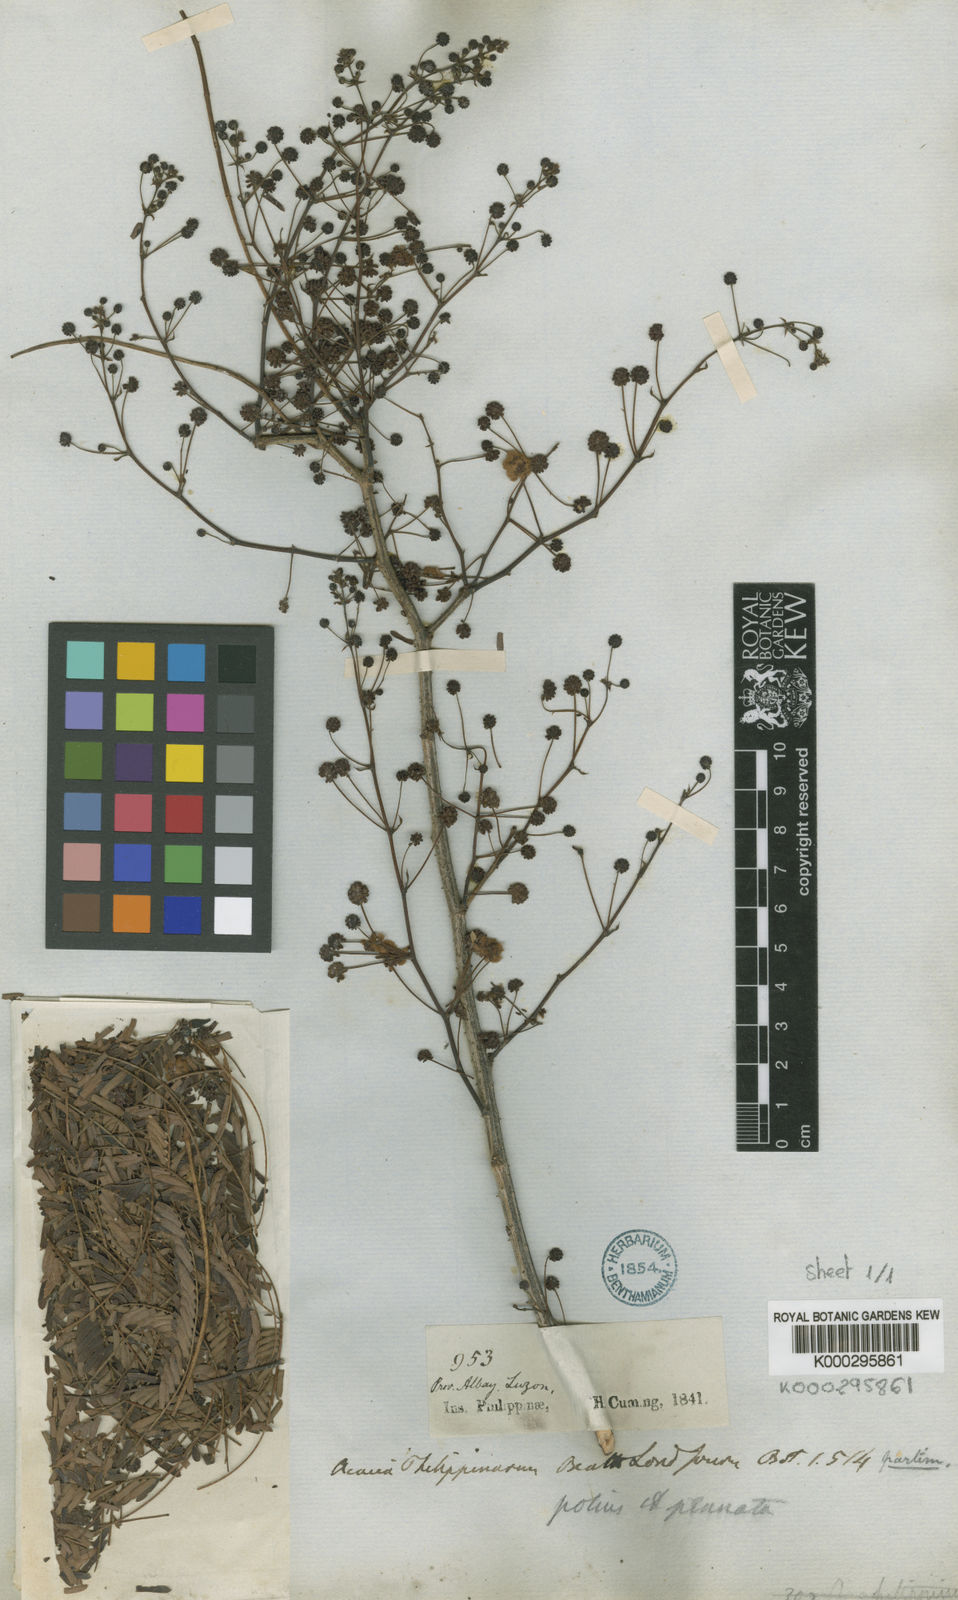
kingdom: Plantae
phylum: Tracheophyta
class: Magnoliopsida
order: Fabales
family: Fabaceae
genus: Senegalia
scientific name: Senegalia rugata
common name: Soap-pod
